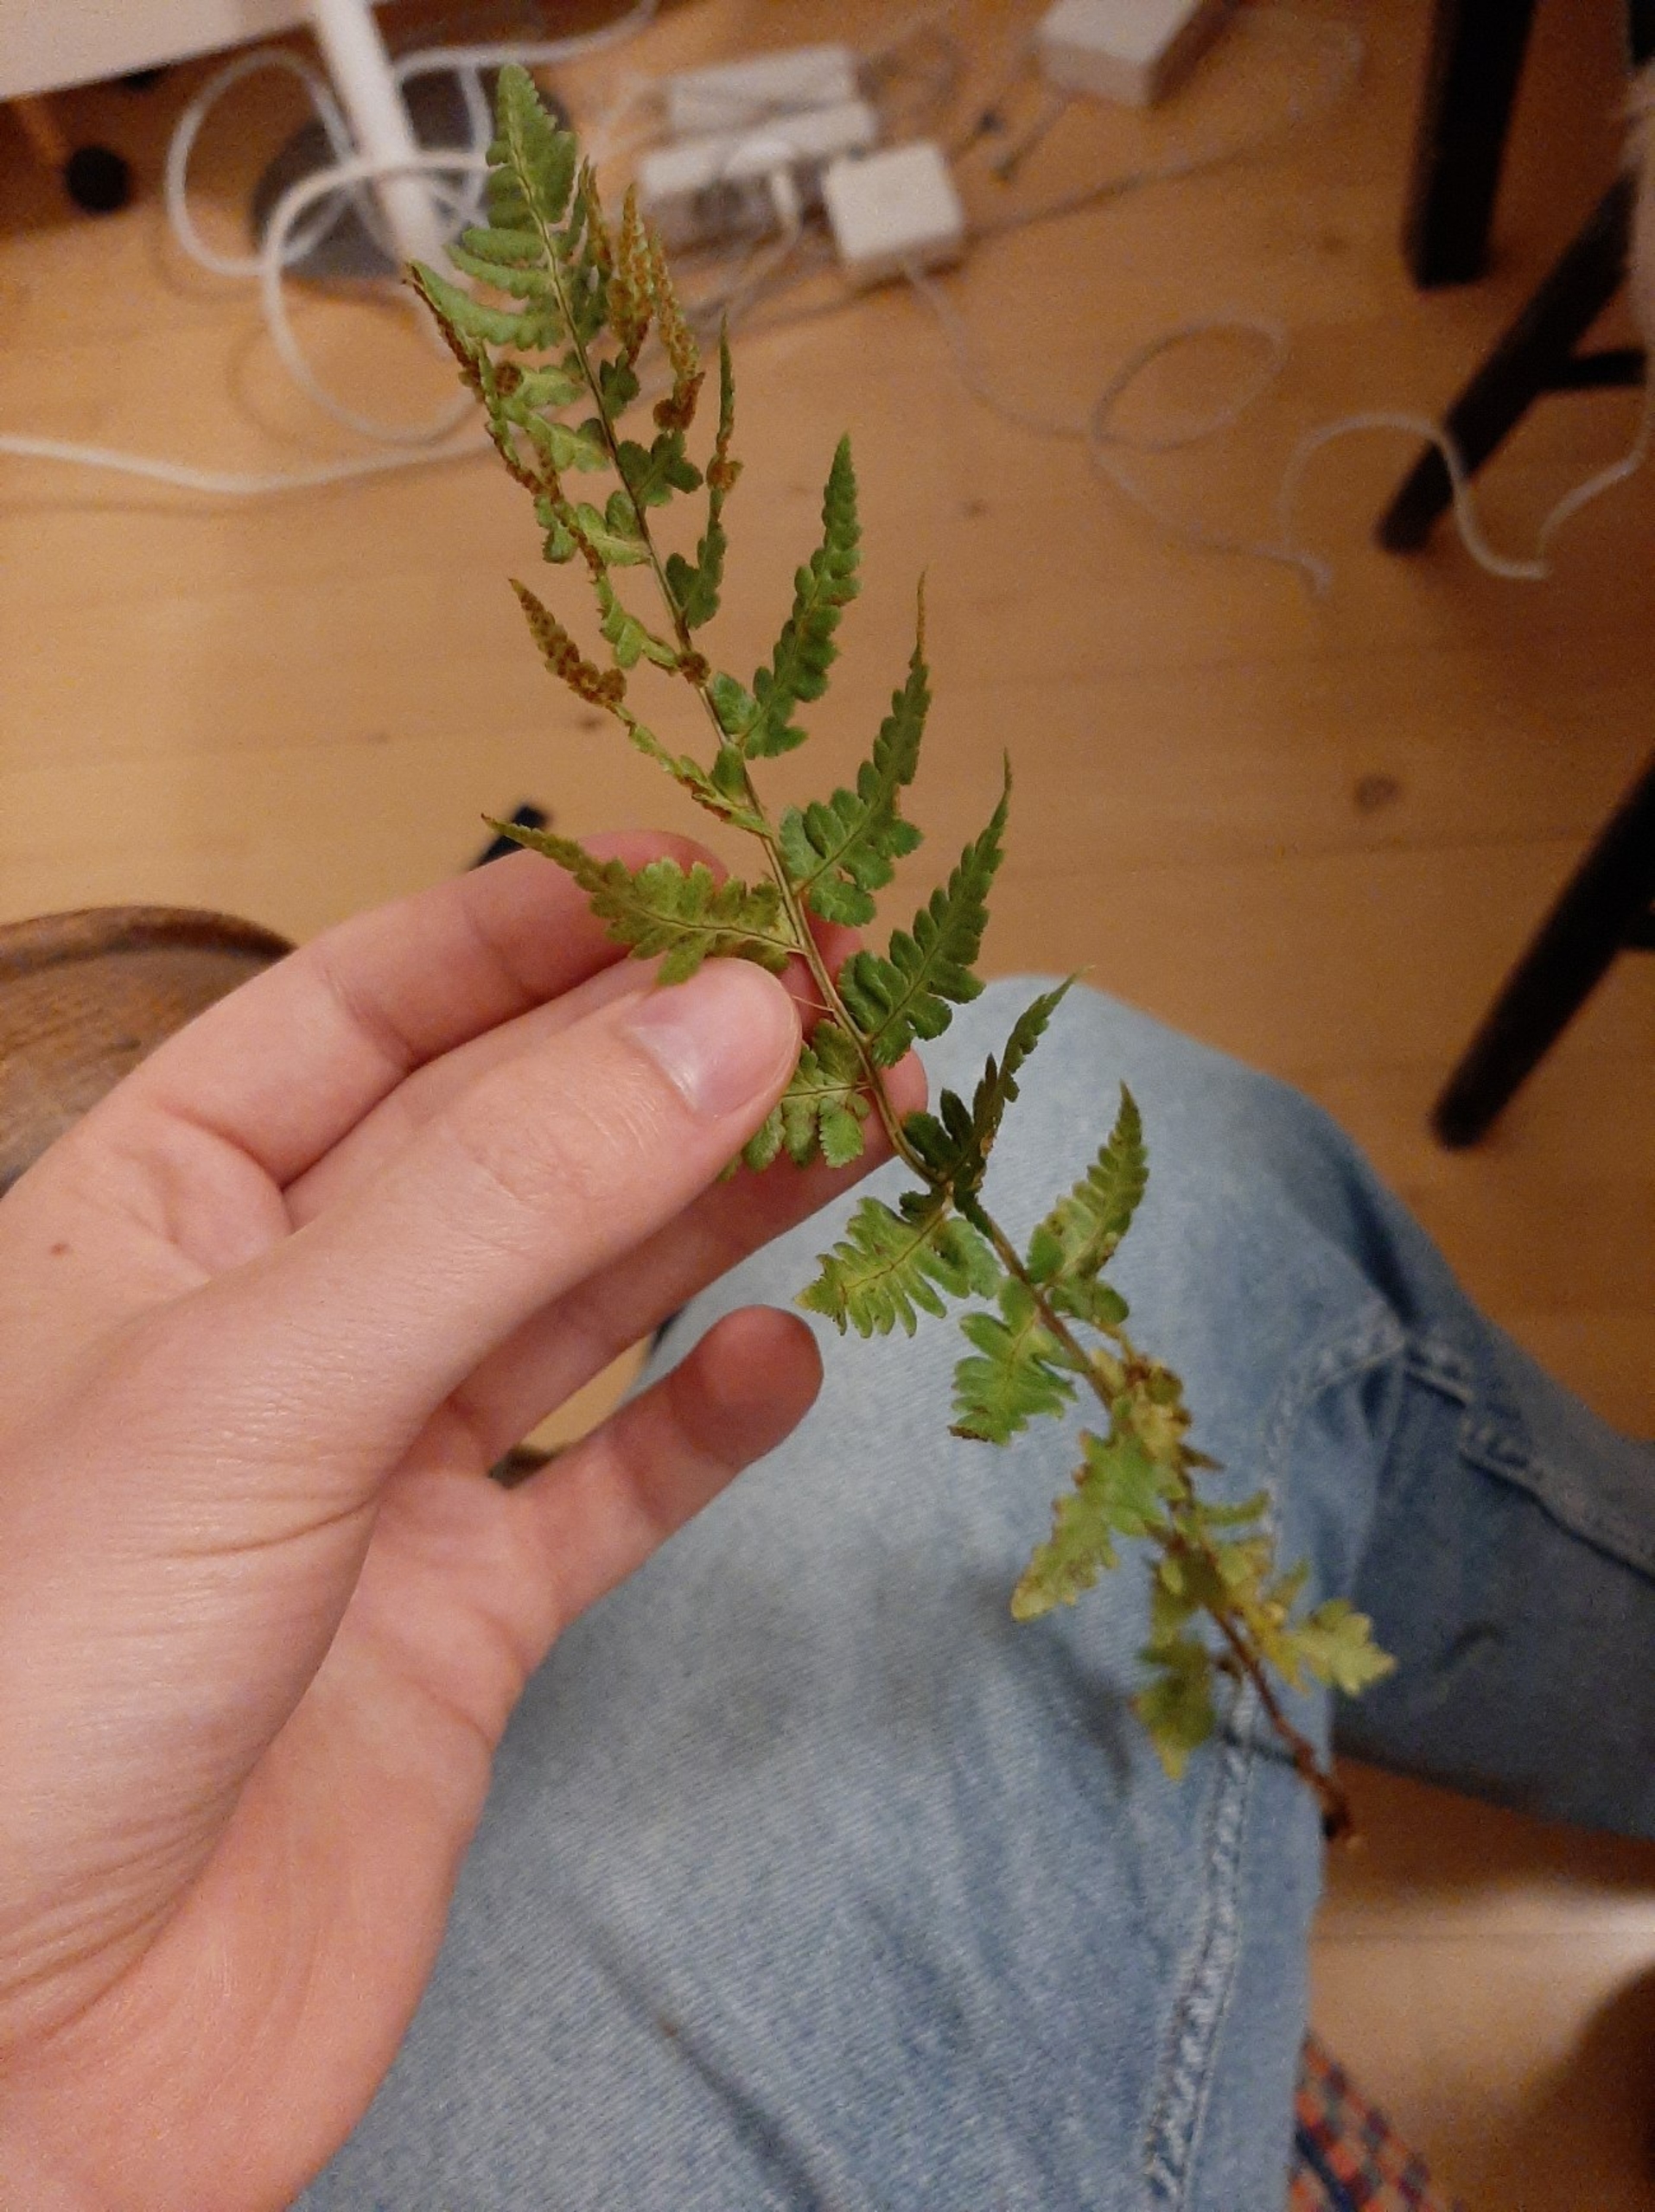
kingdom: Plantae
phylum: Tracheophyta
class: Polypodiopsida
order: Polypodiales
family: Dryopteridaceae
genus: Dryopteris
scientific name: Dryopteris cristata
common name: Butfinnet mangeløv
